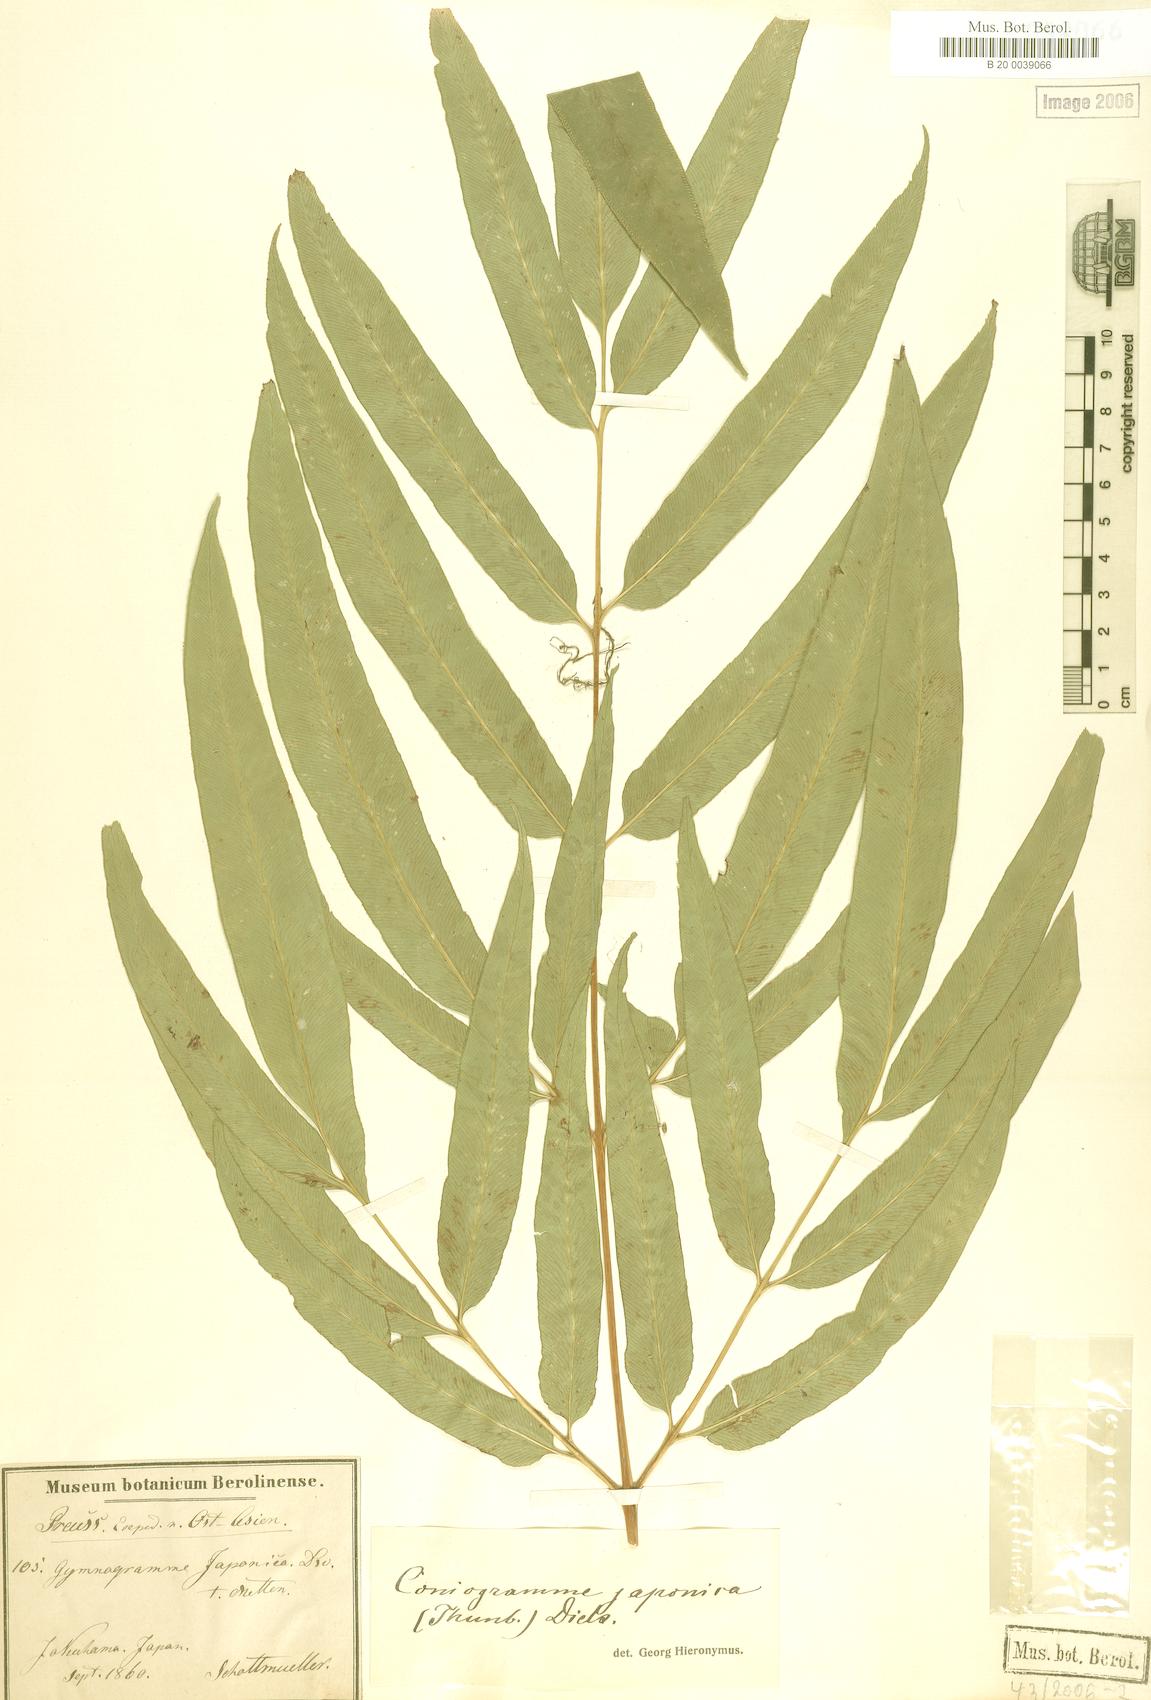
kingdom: Plantae
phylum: Tracheophyta
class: Polypodiopsida
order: Polypodiales
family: Pteridaceae
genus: Coniogramme
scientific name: Coniogramme japonica
